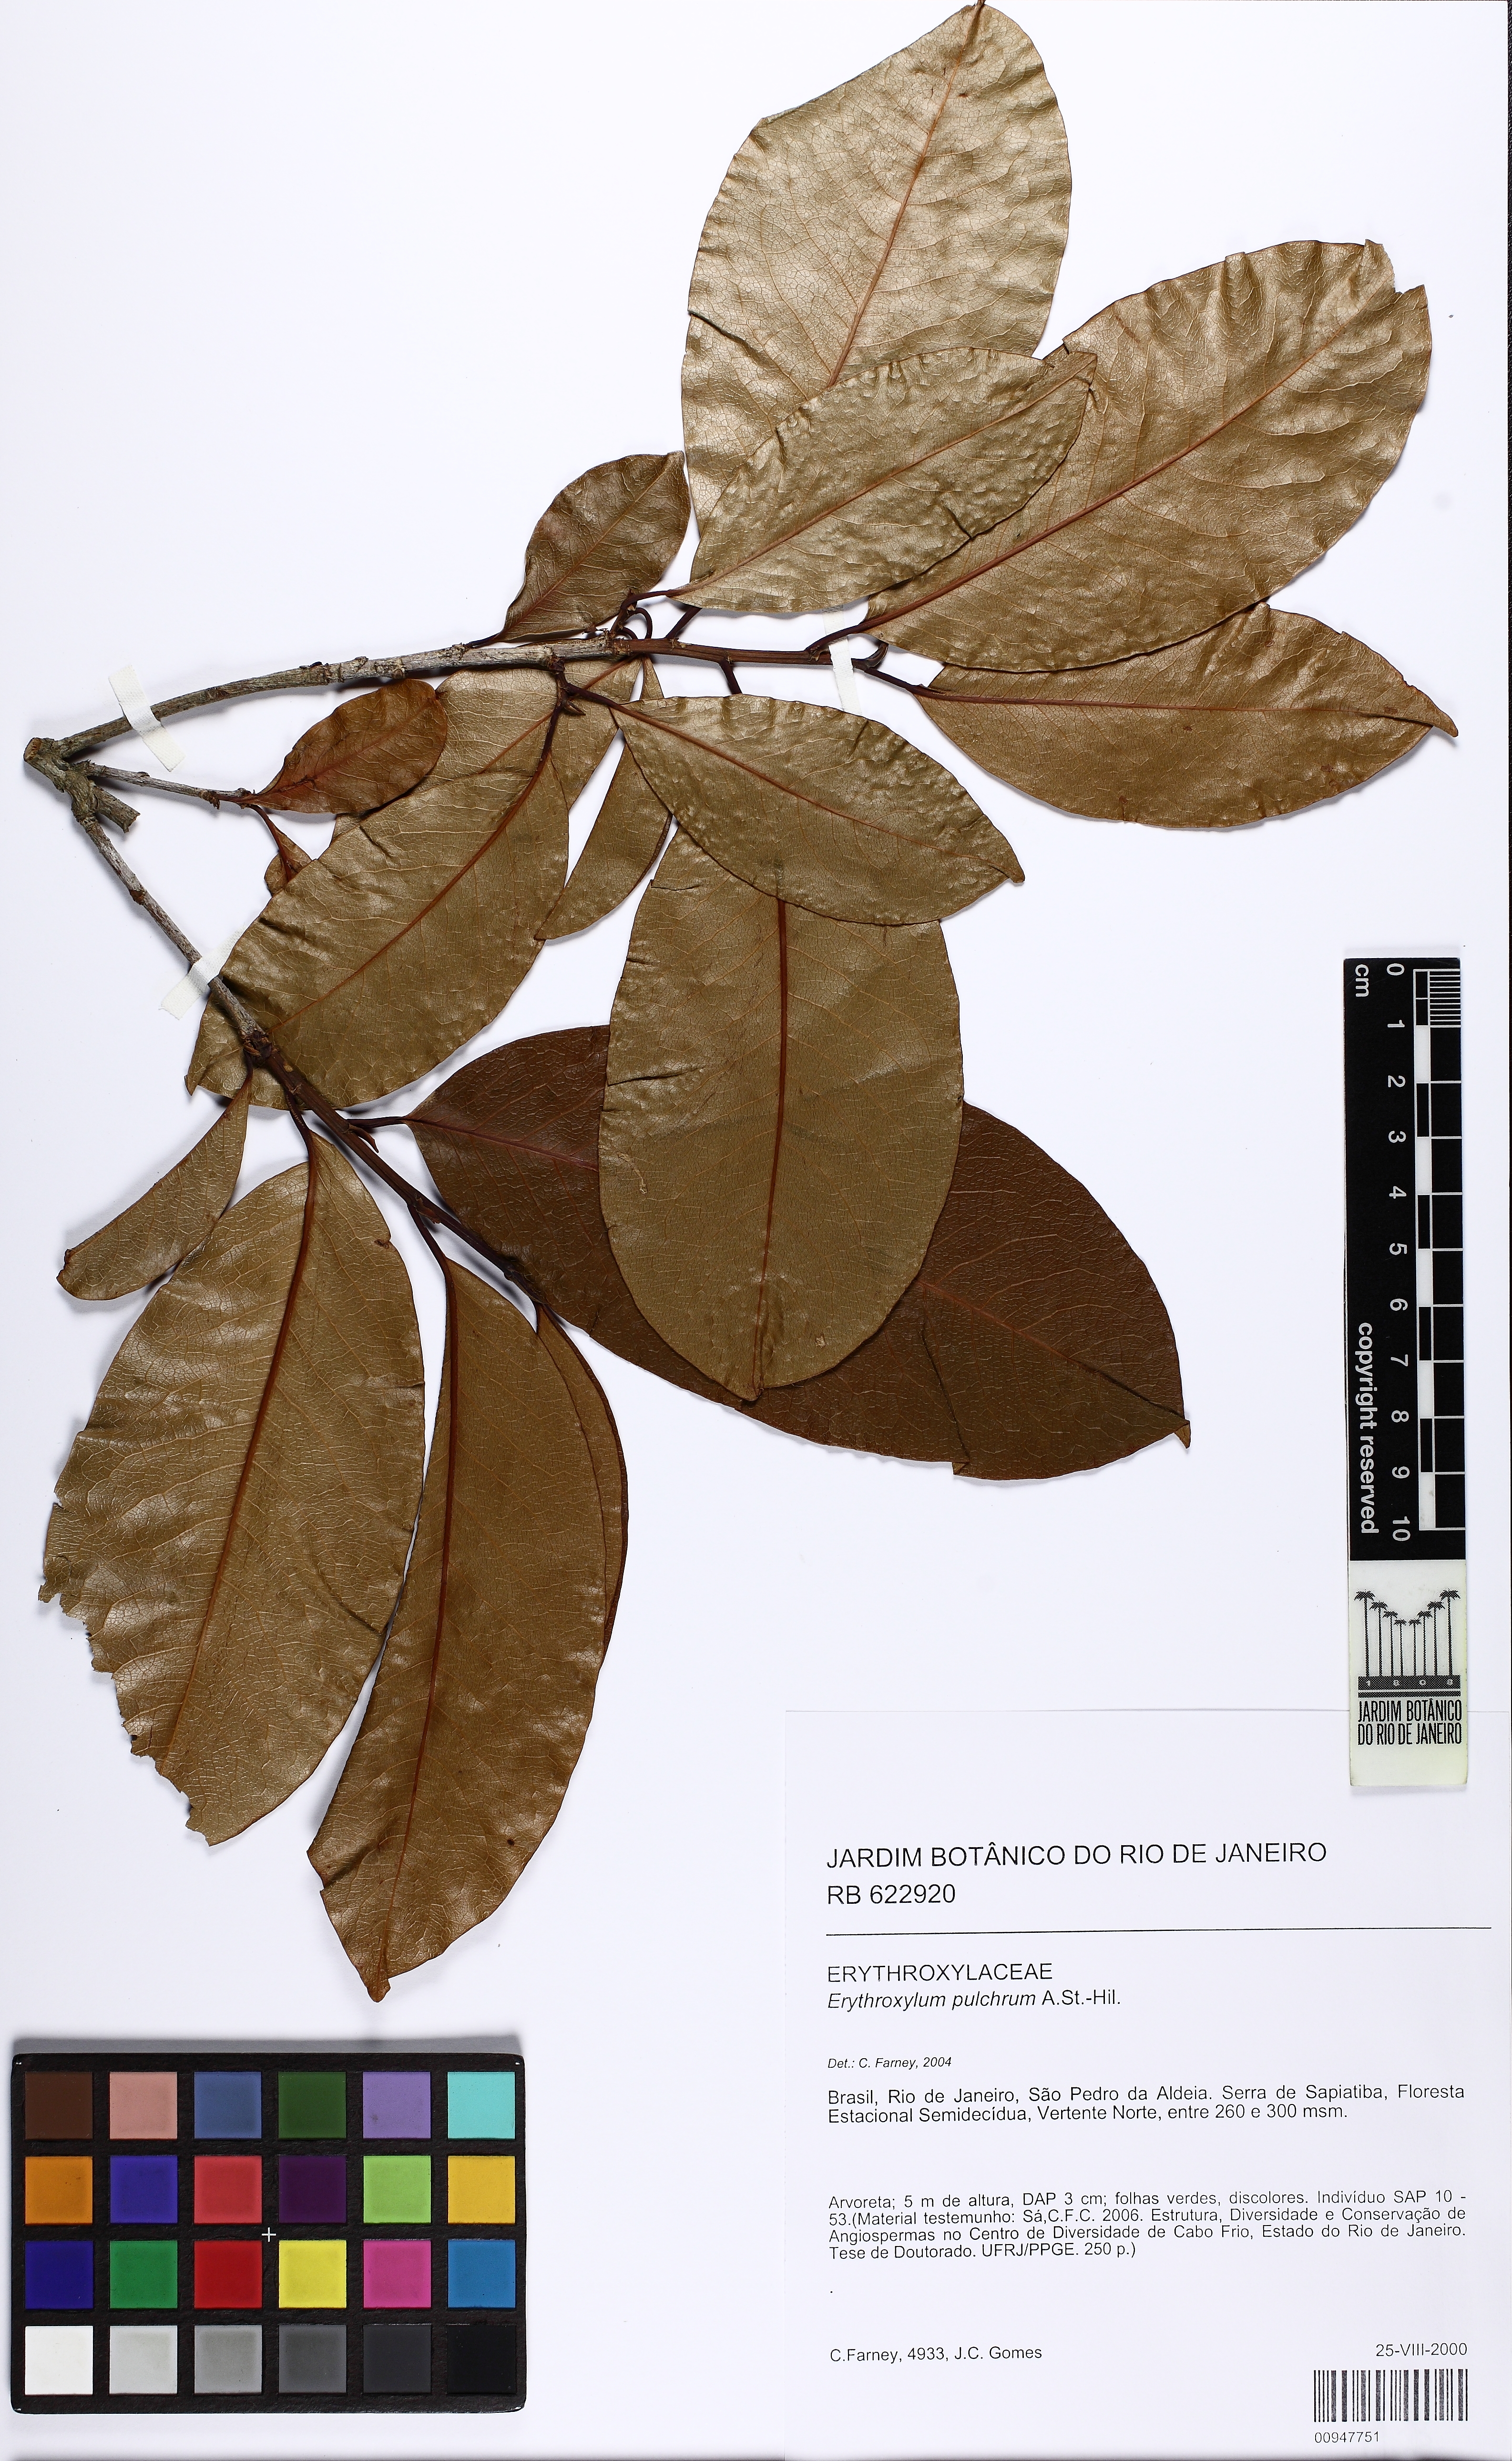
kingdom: Plantae
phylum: Tracheophyta
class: Magnoliopsida
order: Malpighiales
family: Erythroxylaceae
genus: Erythroxylum
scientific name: Erythroxylum pulchrum
